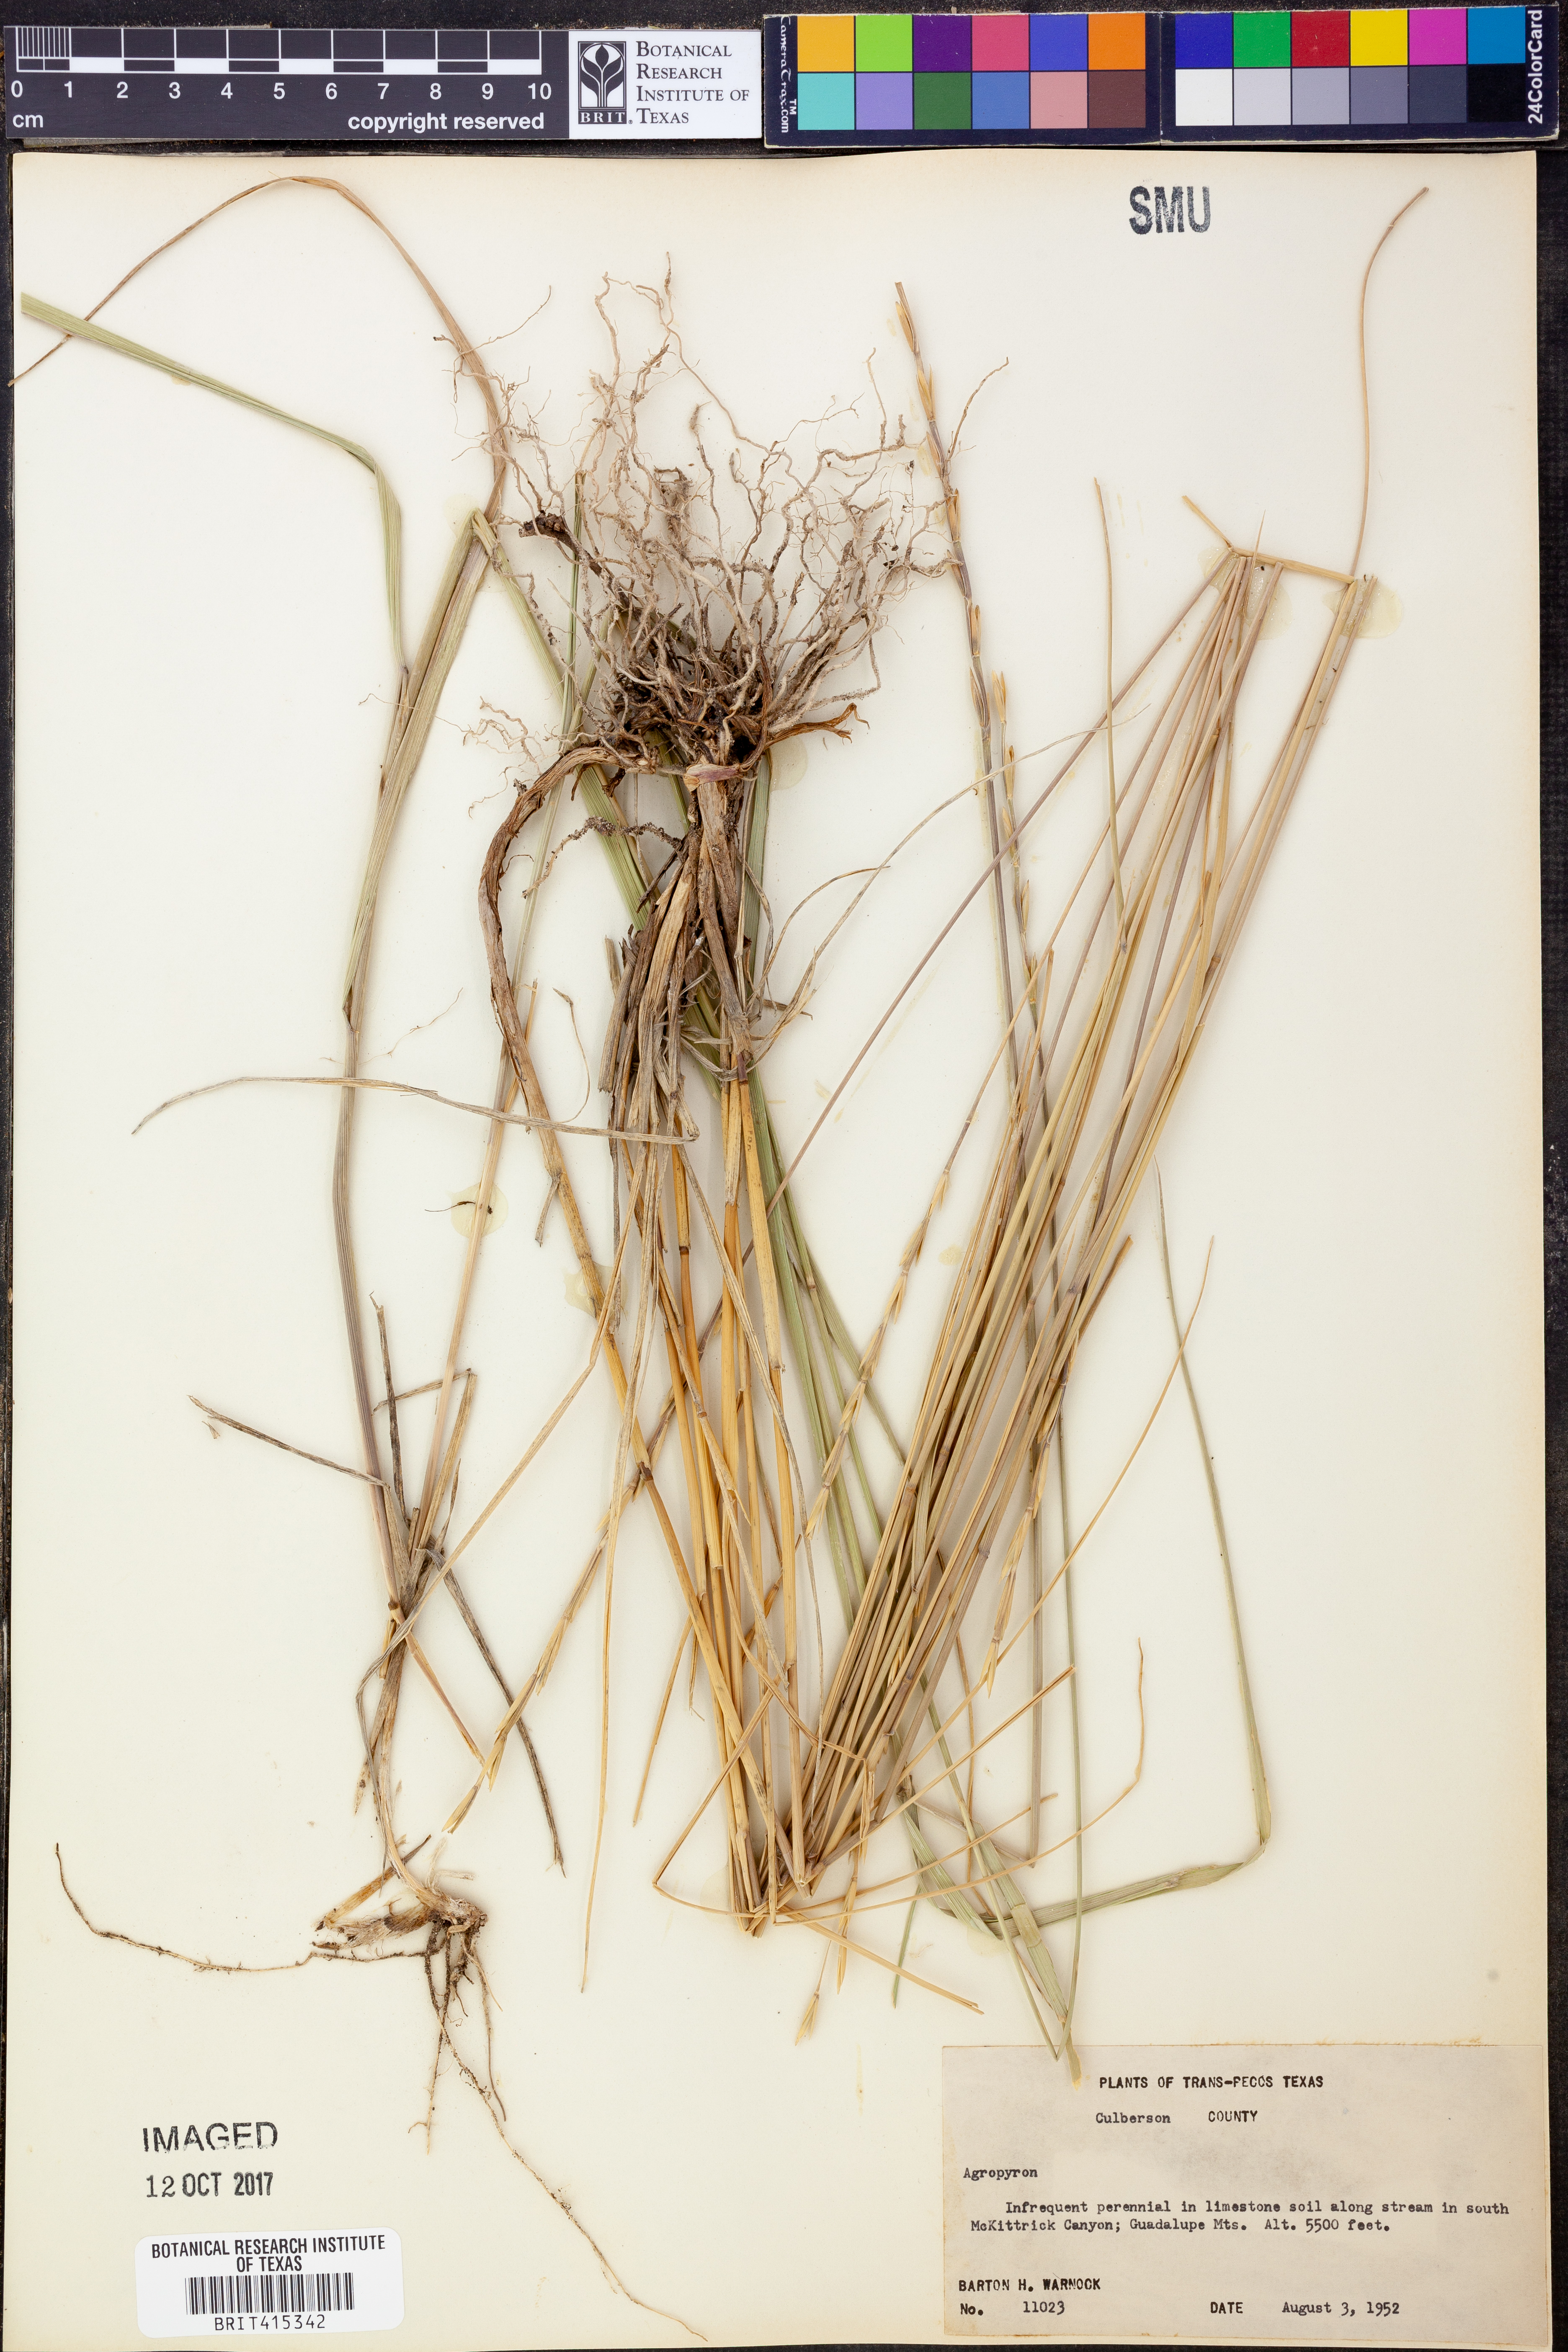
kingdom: Plantae
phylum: Tracheophyta
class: Liliopsida
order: Poales
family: Poaceae
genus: Agropyron
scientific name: Agropyron
